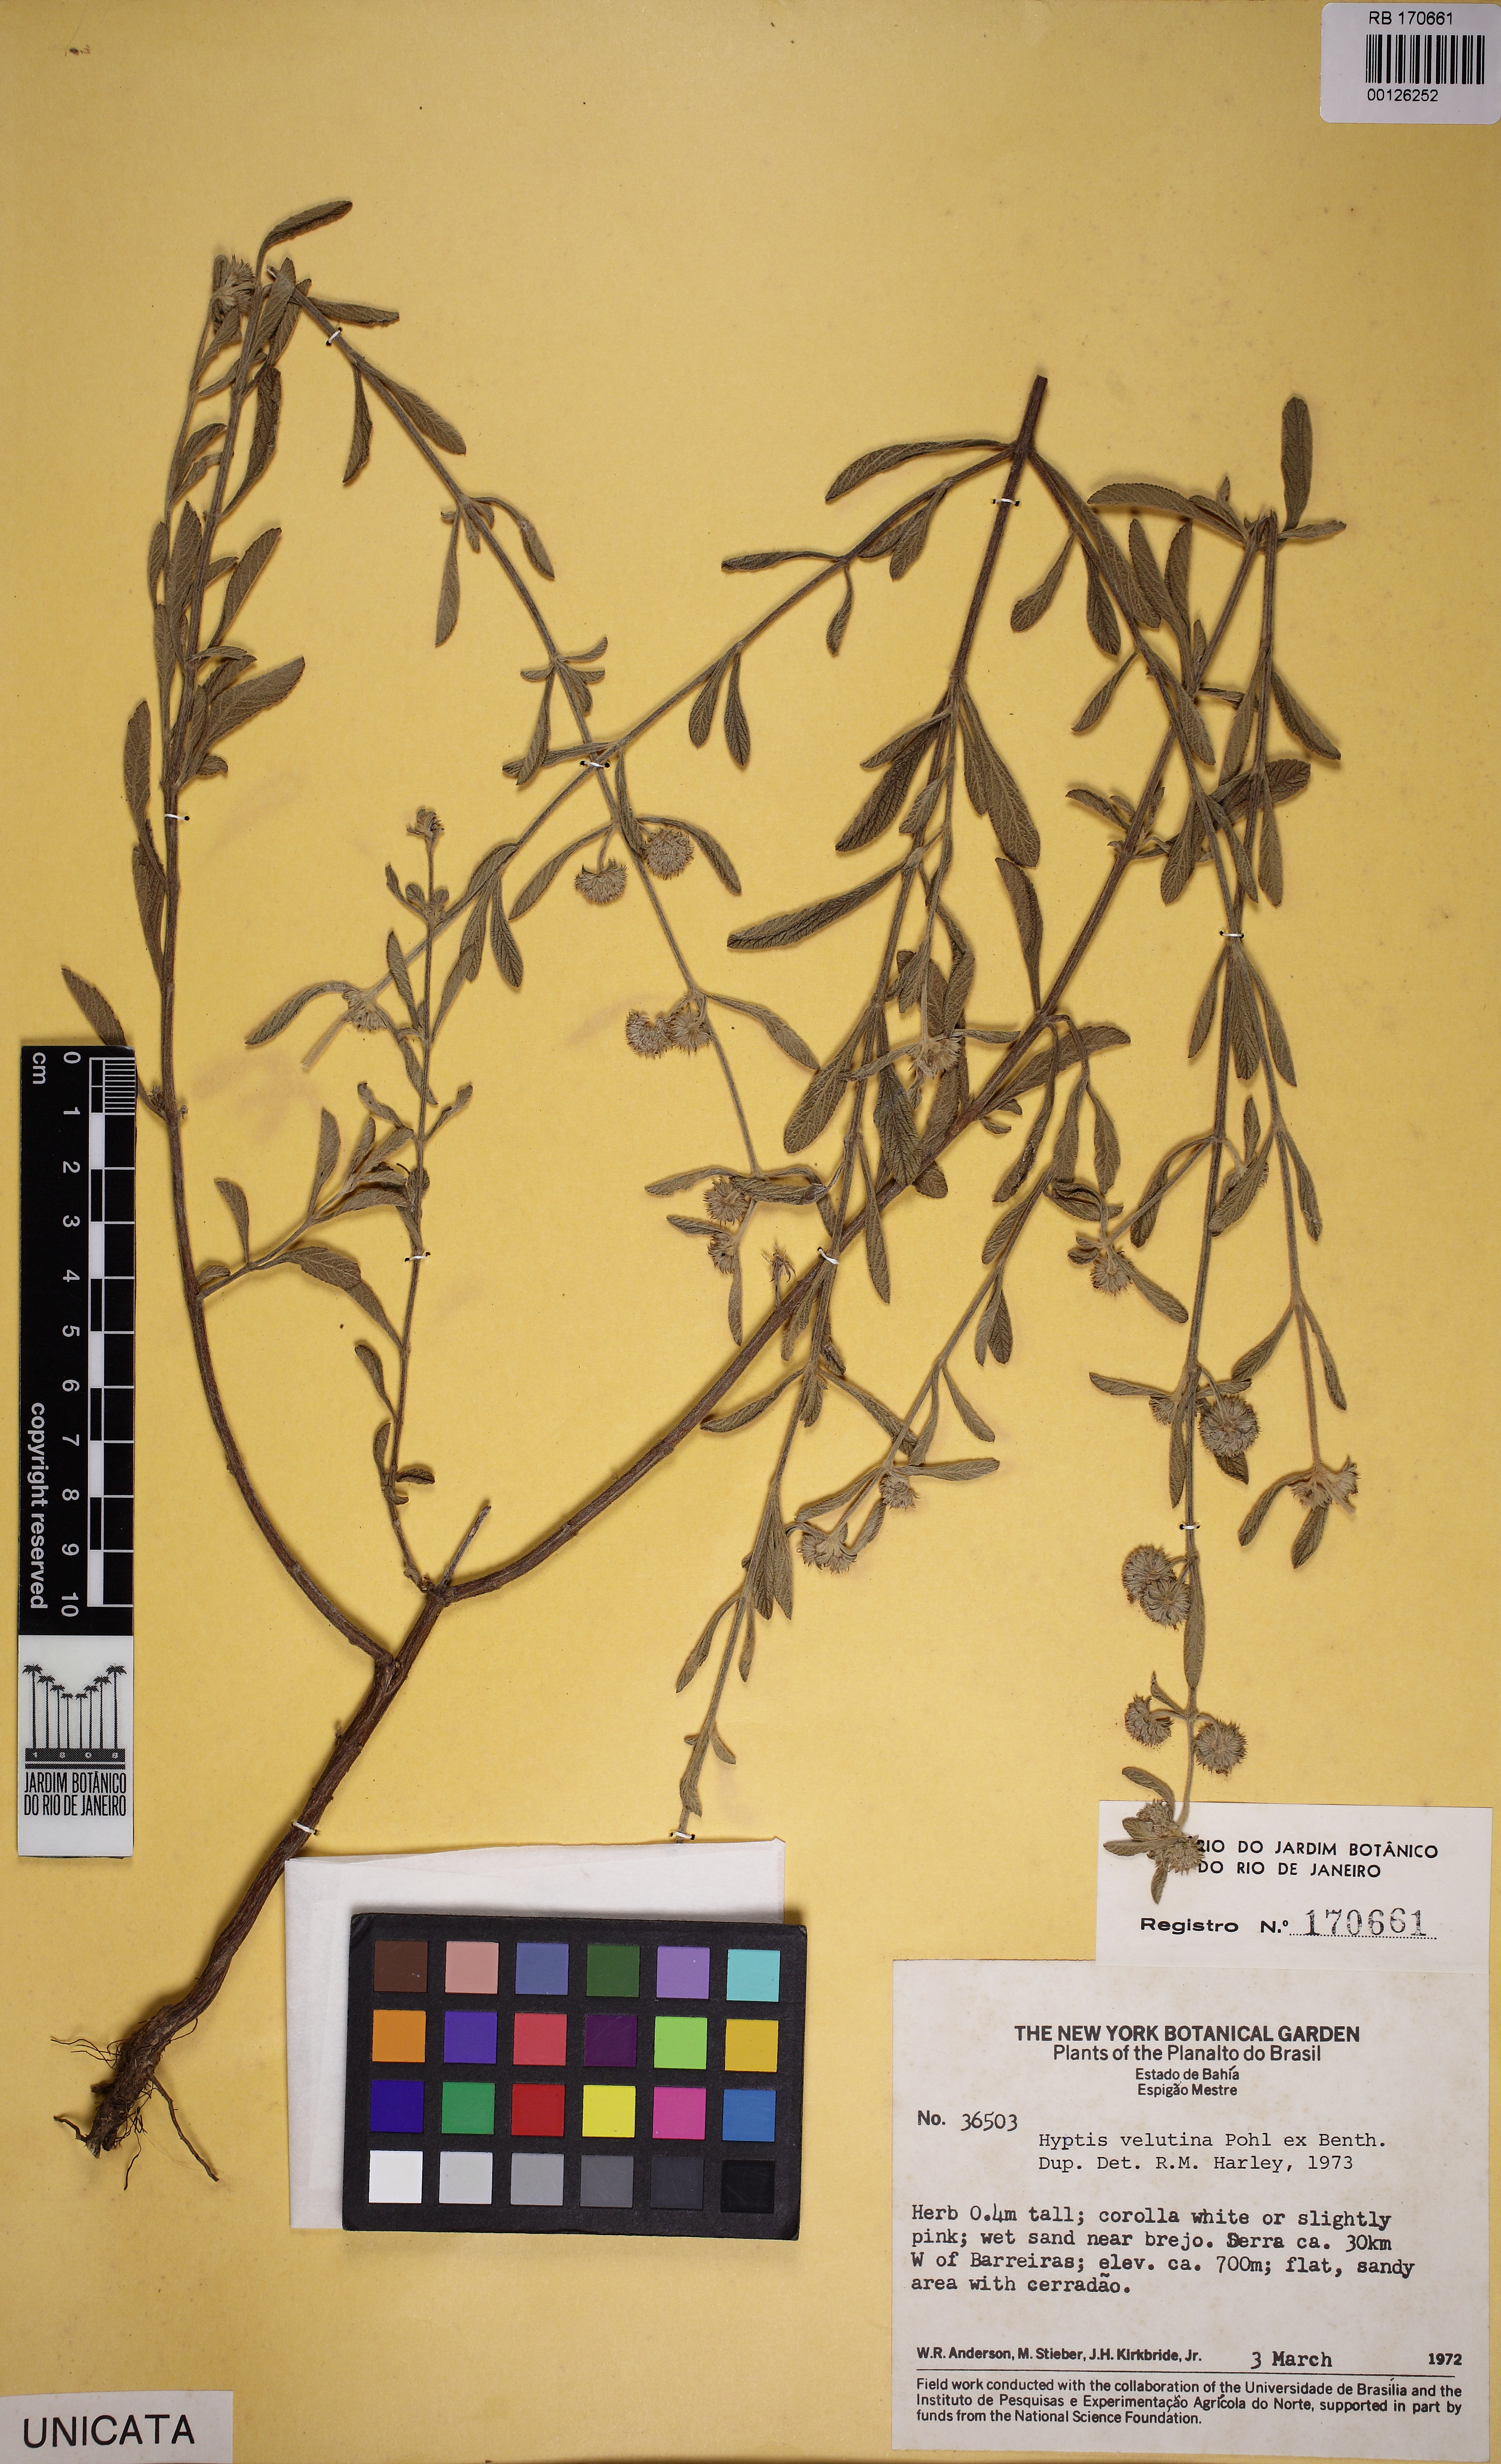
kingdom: Plantae
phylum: Tracheophyta
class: Magnoliopsida
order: Lamiales
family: Lamiaceae
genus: Hyptis
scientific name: Hyptis velutina
